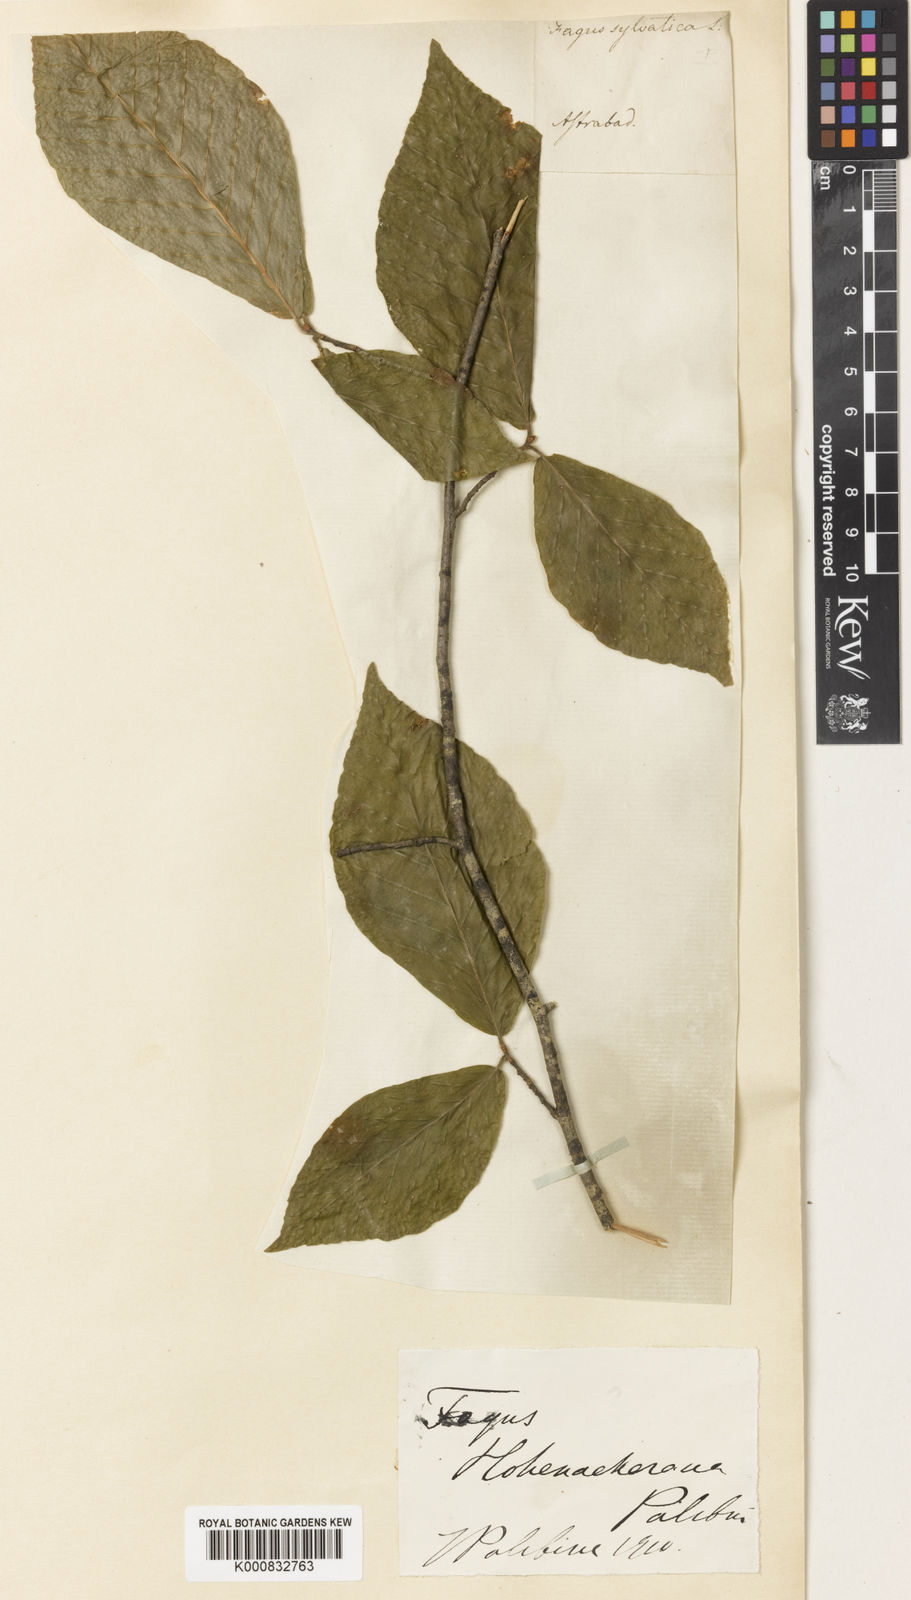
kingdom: Plantae
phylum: Tracheophyta
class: Magnoliopsida
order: Fagales
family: Fagaceae
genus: Fagus
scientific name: Fagus orientalis
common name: Oriental beech
